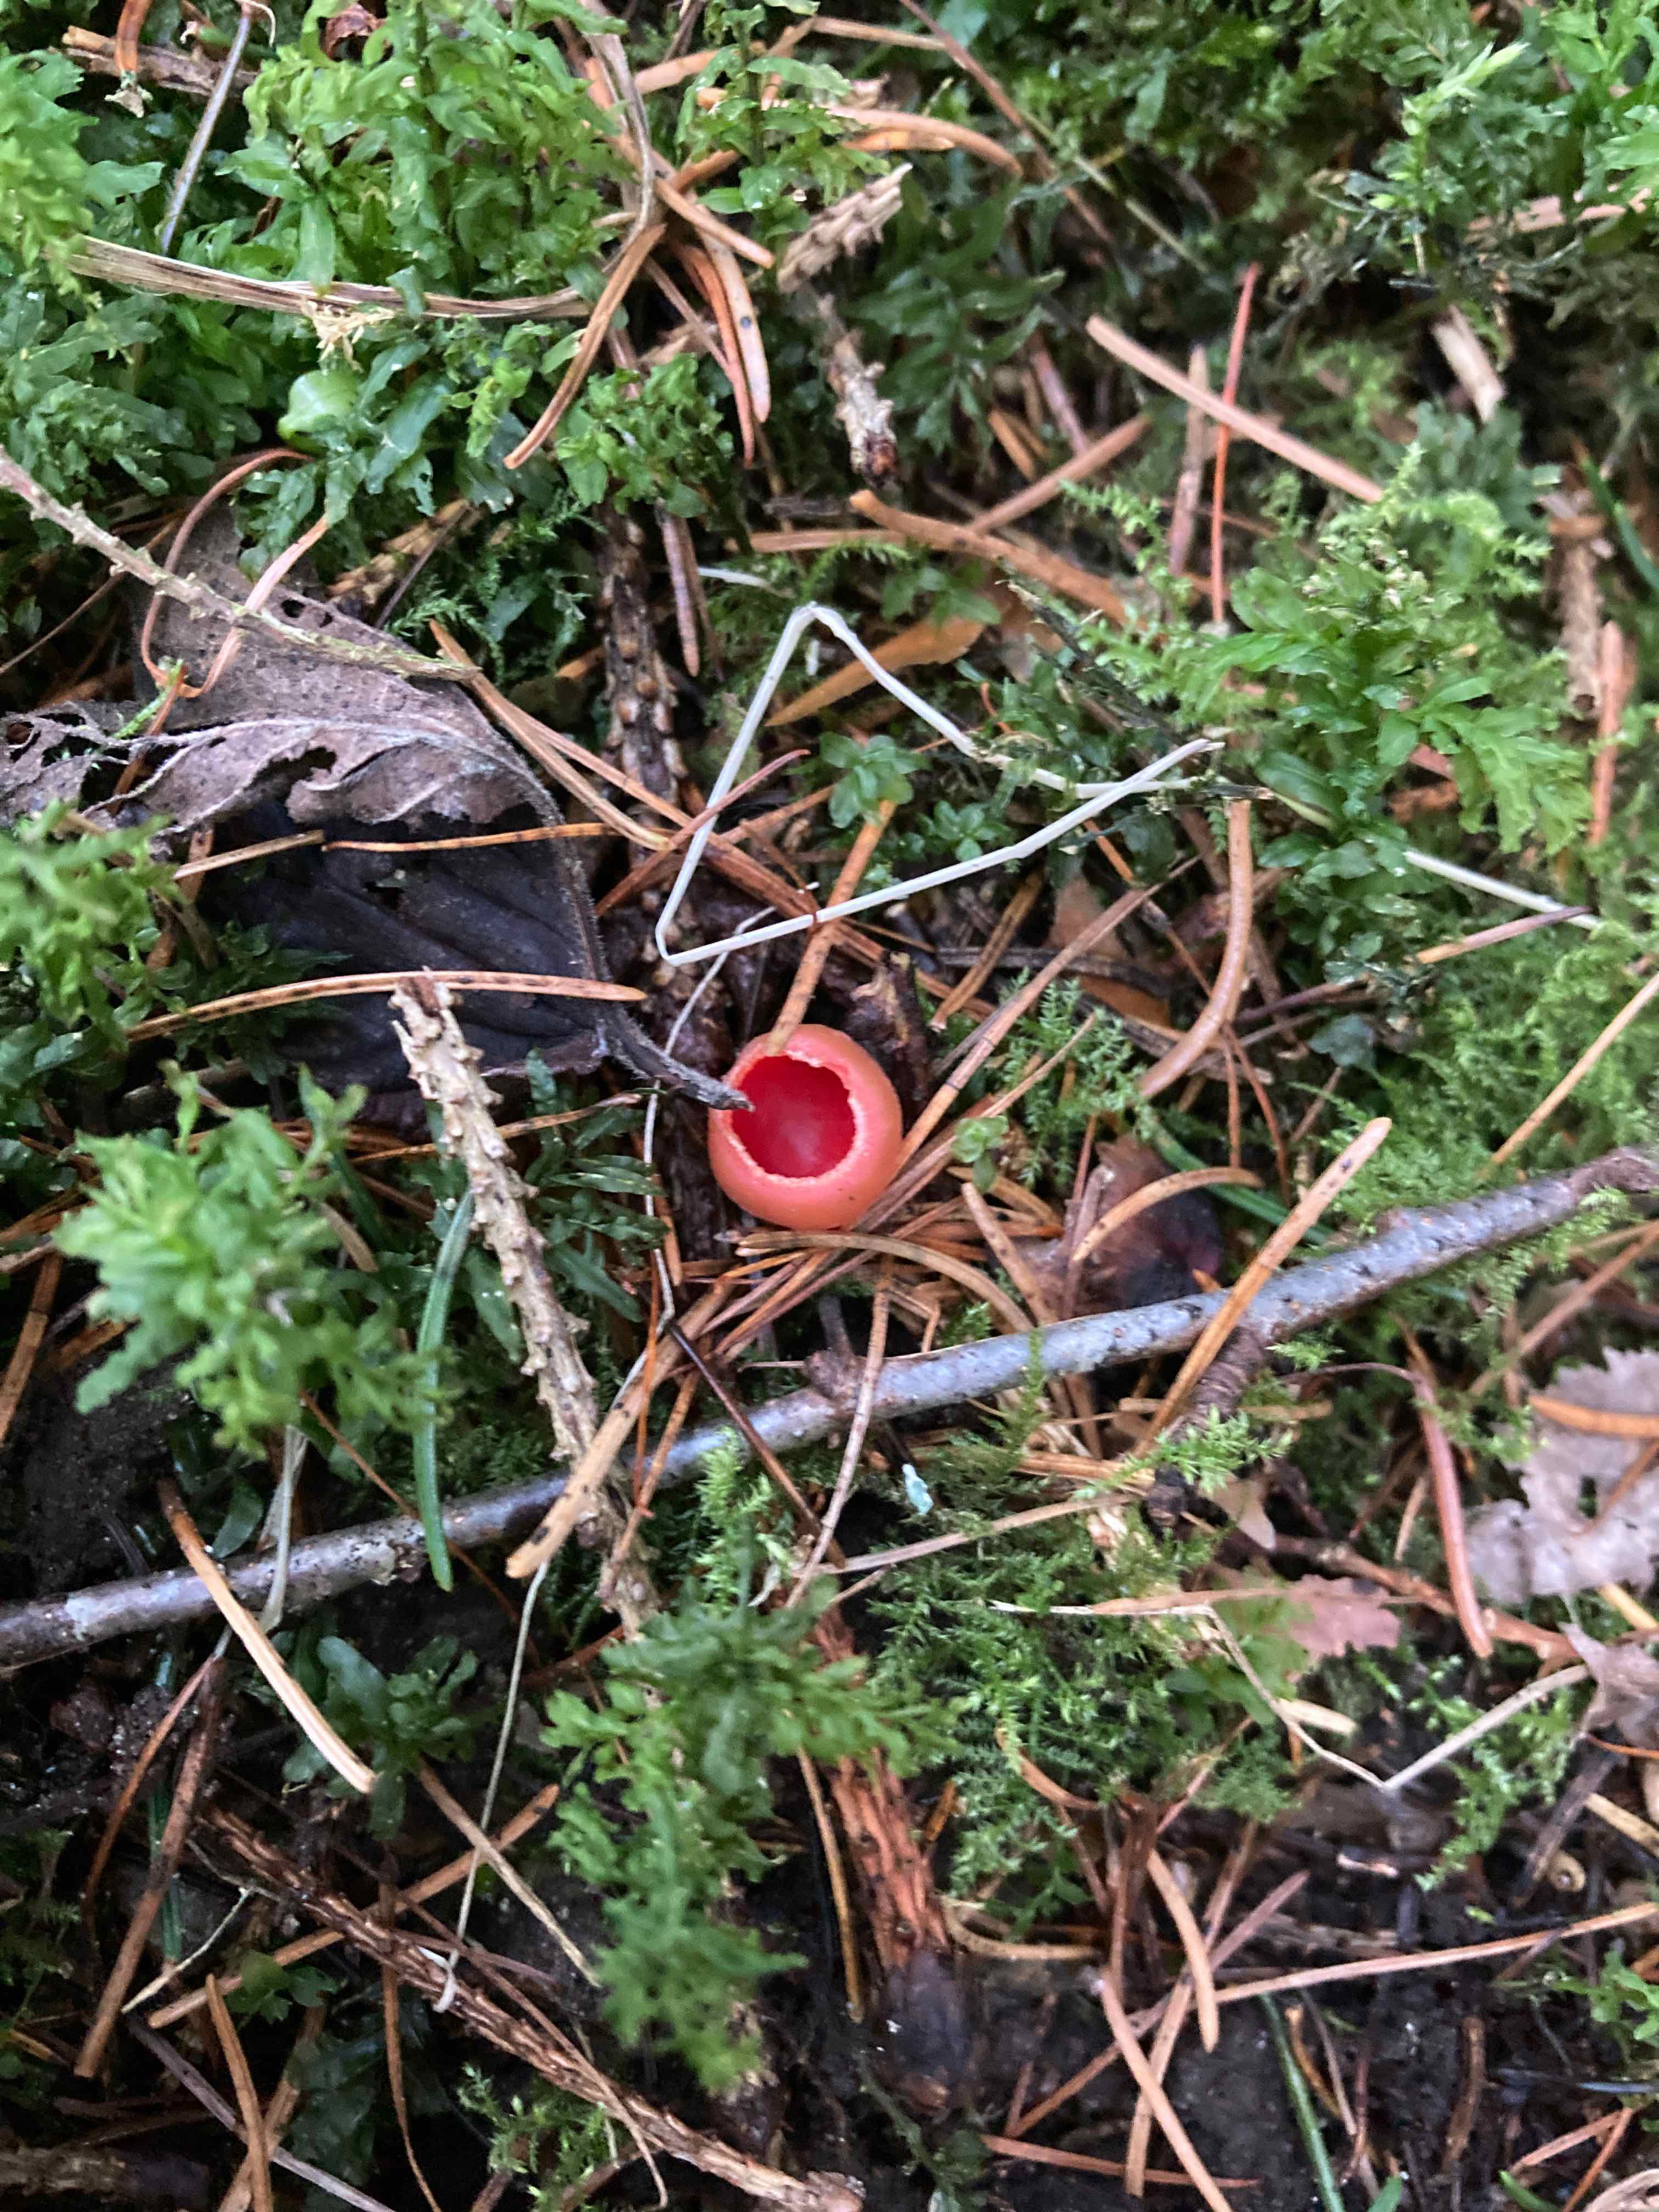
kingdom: Fungi
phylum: Ascomycota
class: Pezizomycetes
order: Pezizales
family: Sarcoscyphaceae
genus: Sarcoscypha
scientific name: Sarcoscypha austriaca
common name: krølhåret pragtbæger
